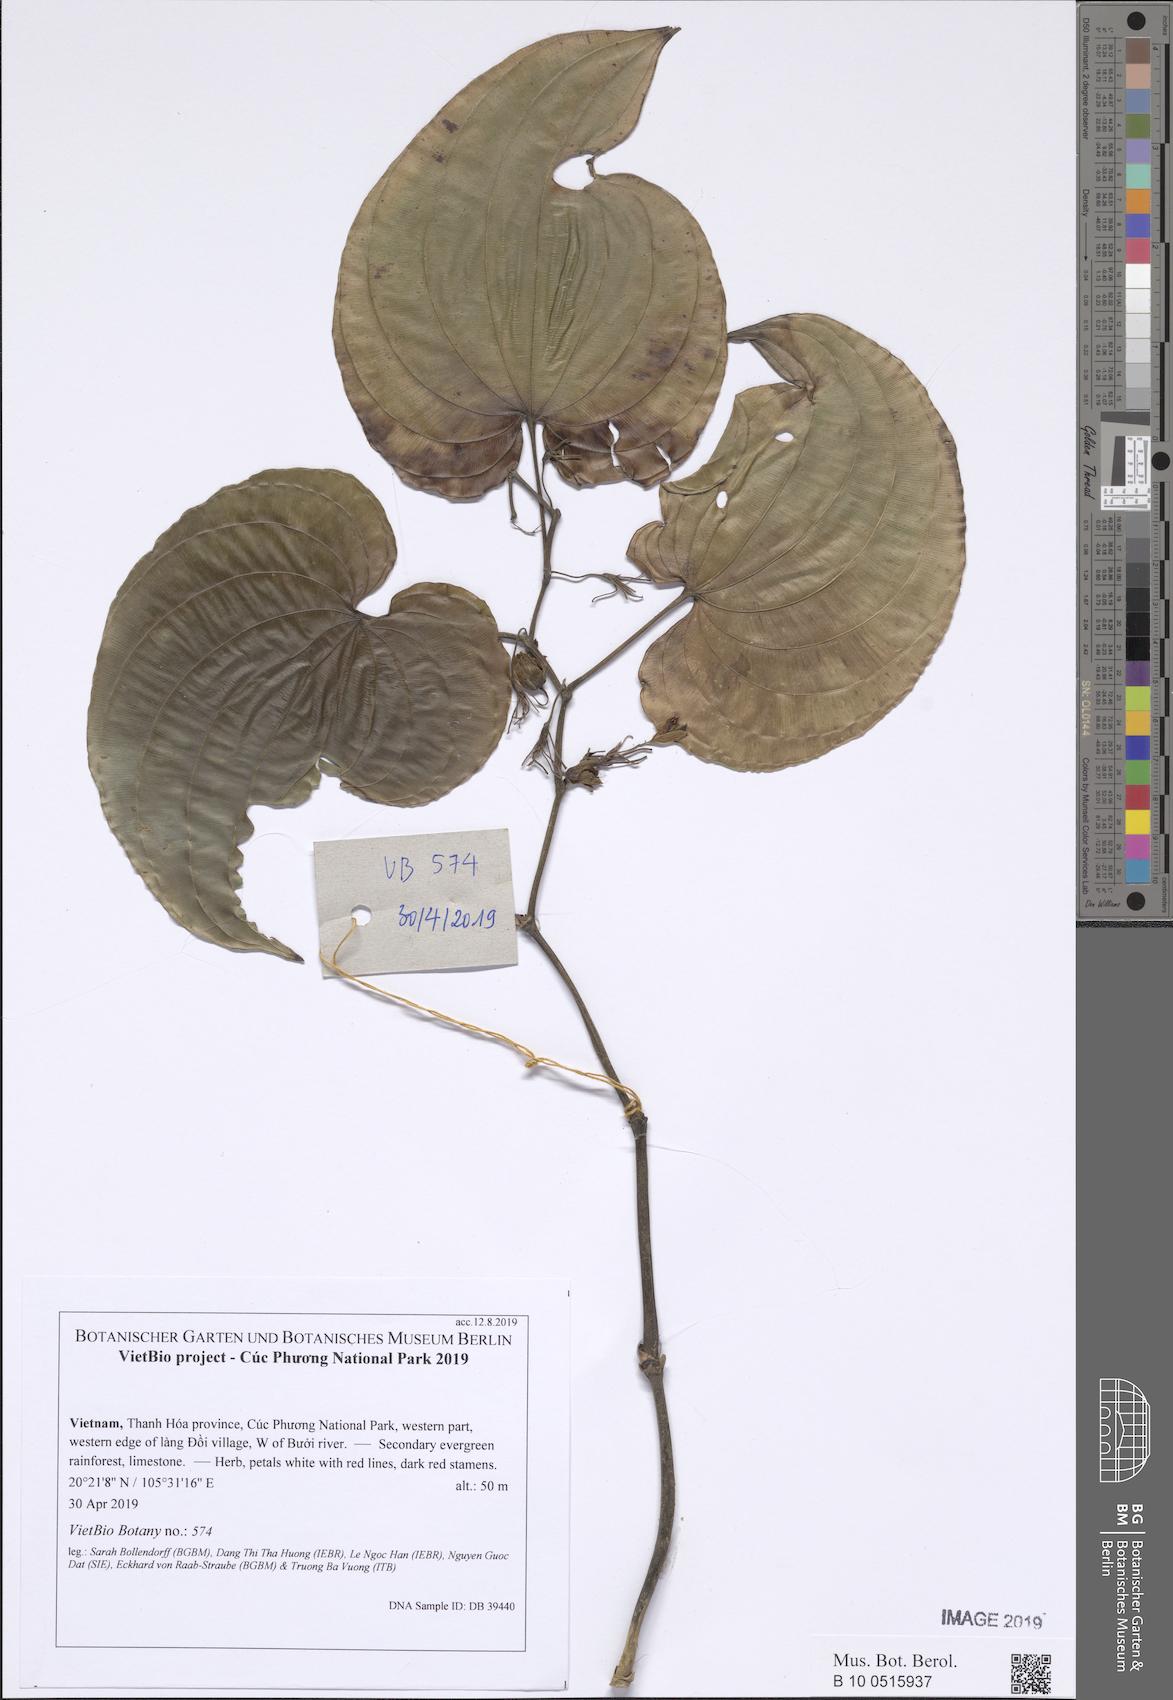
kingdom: Plantae
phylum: Tracheophyta
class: Liliopsida
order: Pandanales
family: Stemonaceae
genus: Stemona
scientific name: Stemona tuberosa
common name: Stemona
